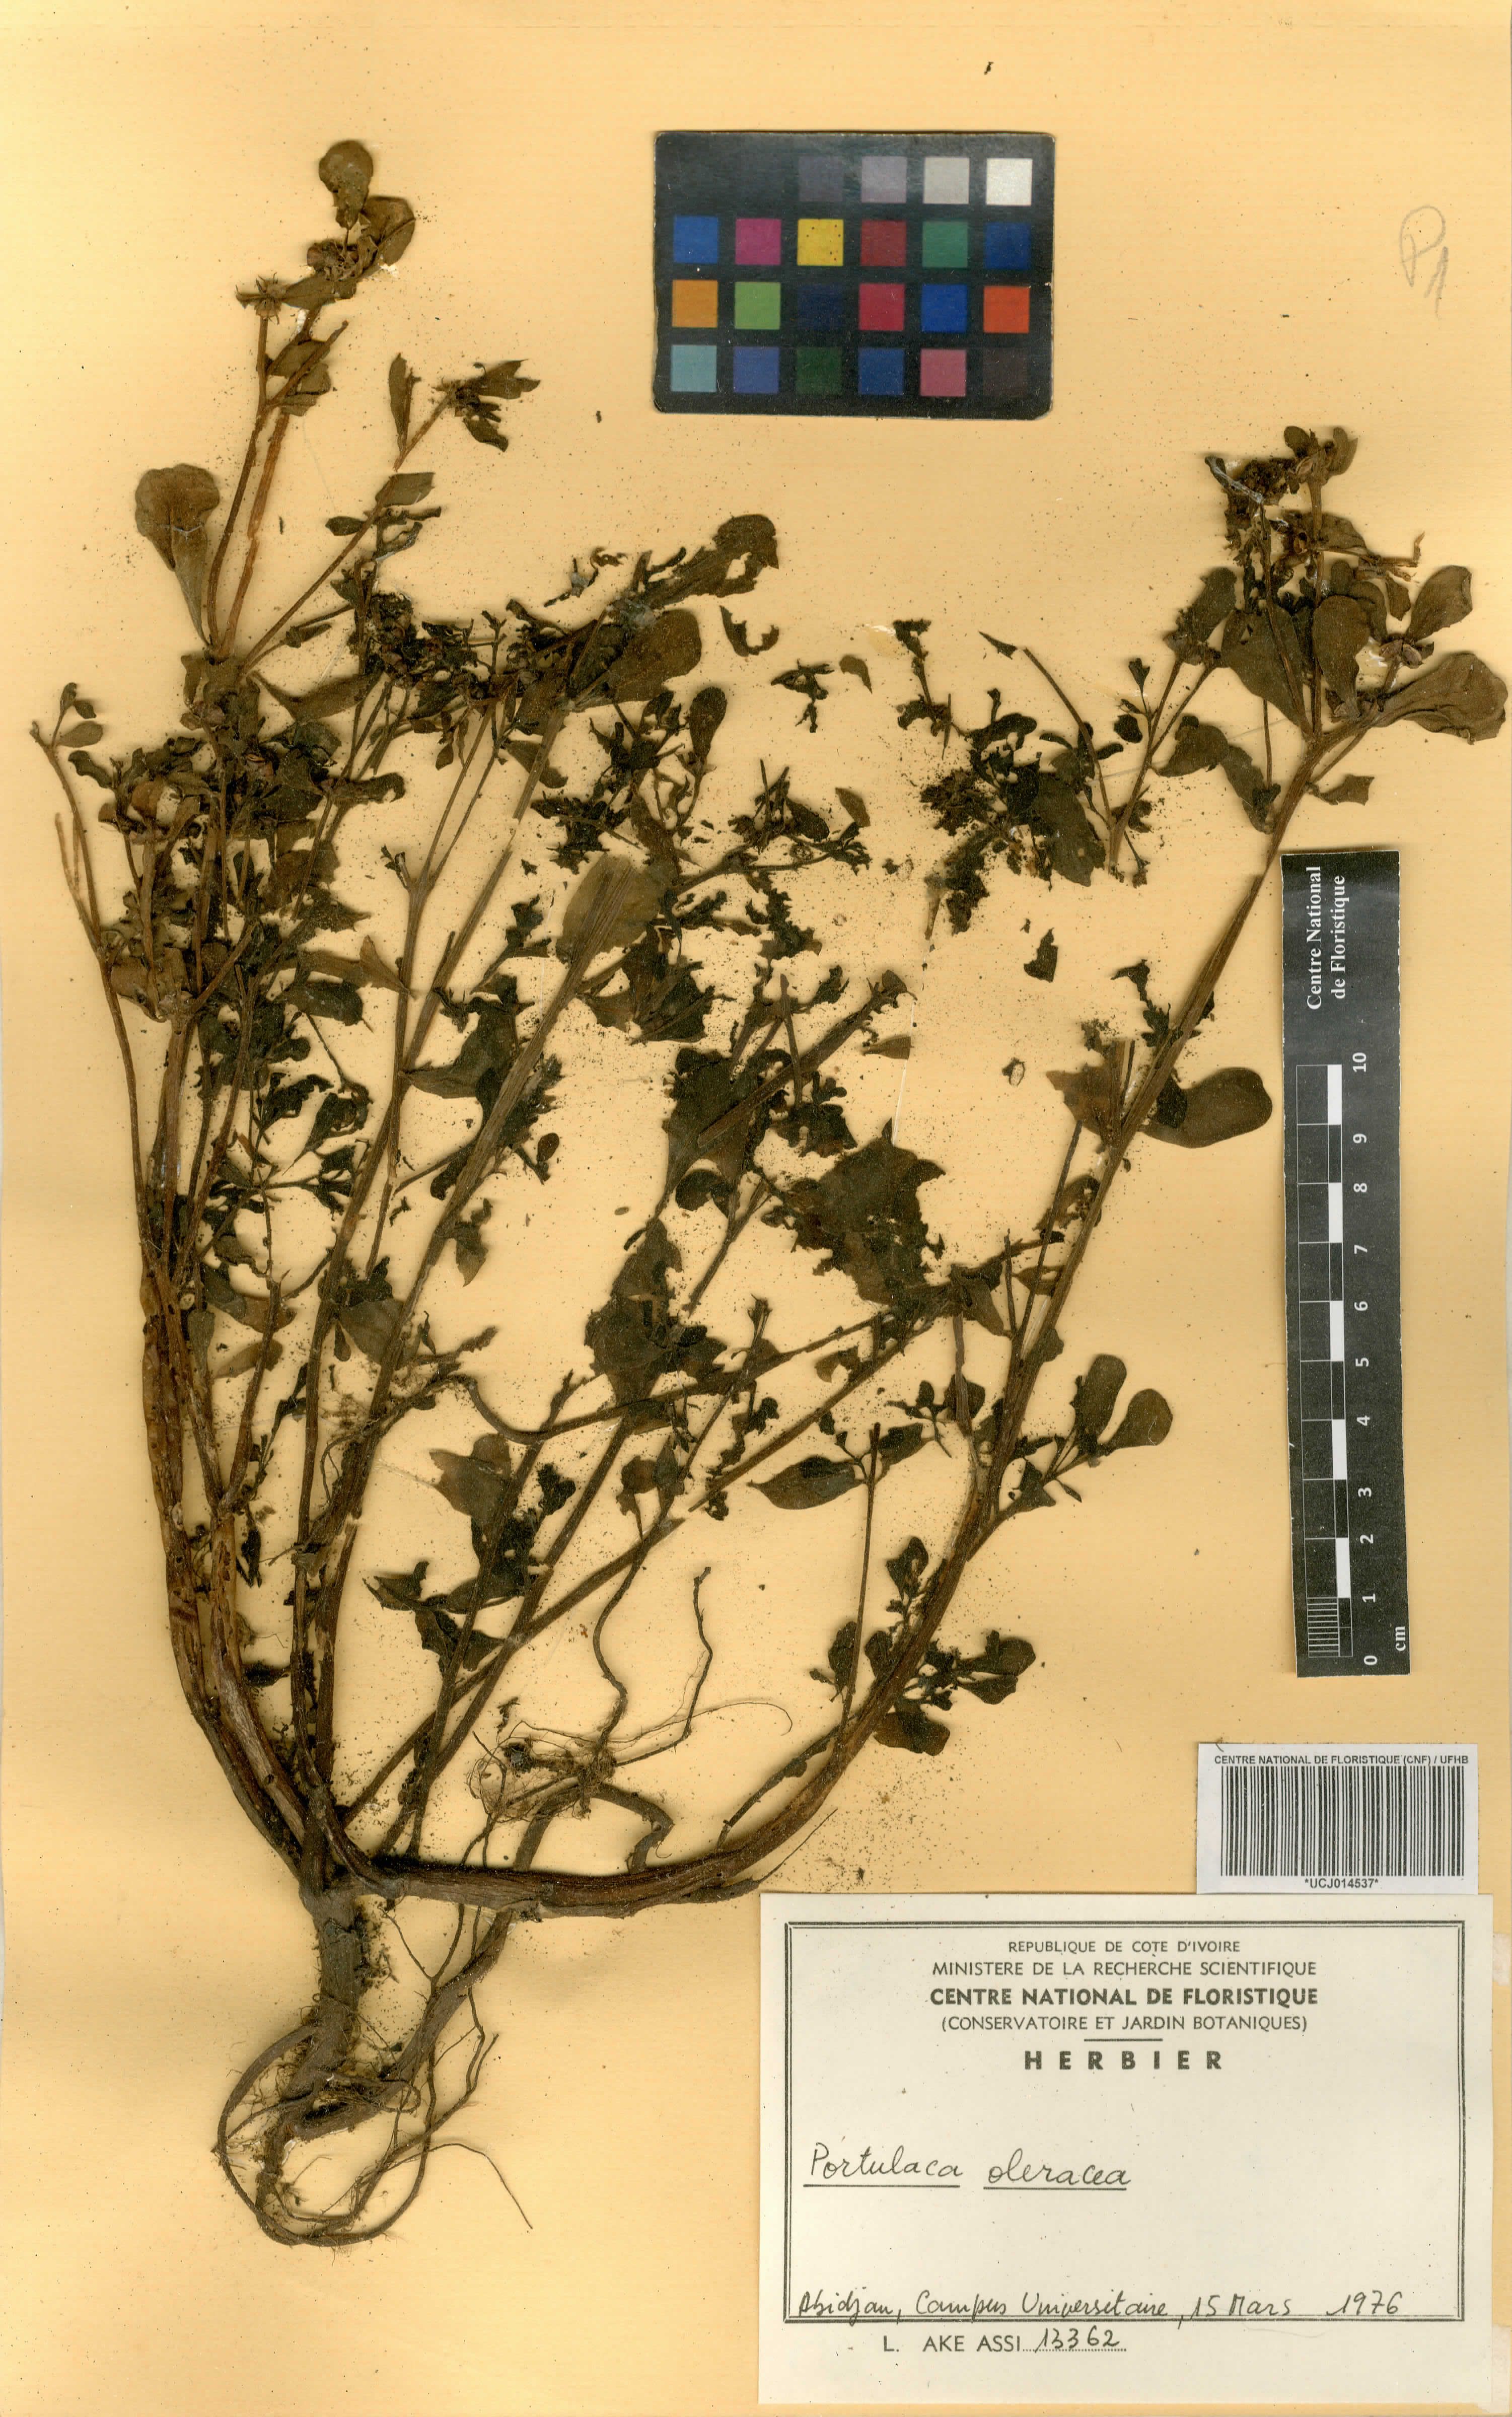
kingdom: Plantae
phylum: Tracheophyta
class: Magnoliopsida
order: Caryophyllales
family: Portulacaceae
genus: Portulaca
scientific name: Portulaca oleracea
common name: Common purslane
